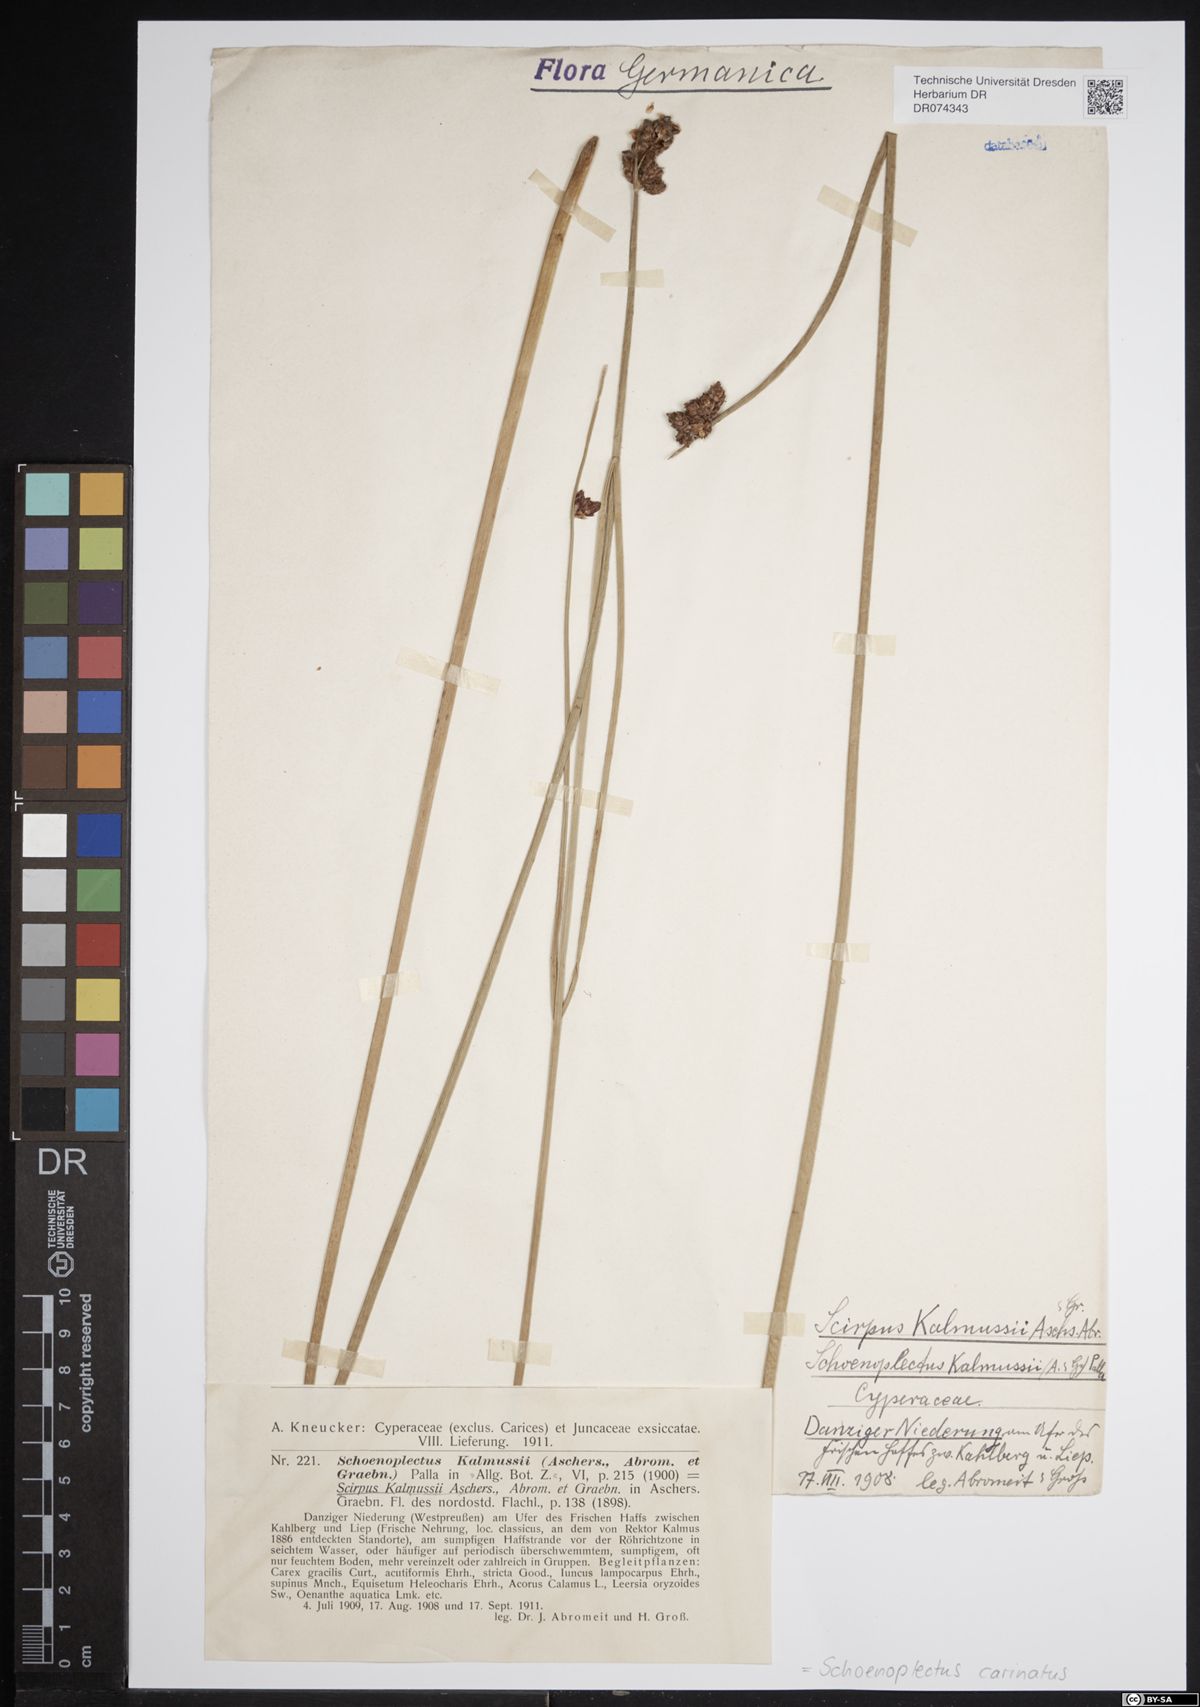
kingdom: Plantae
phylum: Tracheophyta
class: Liliopsida
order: Poales
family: Cyperaceae
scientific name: Cyperaceae
